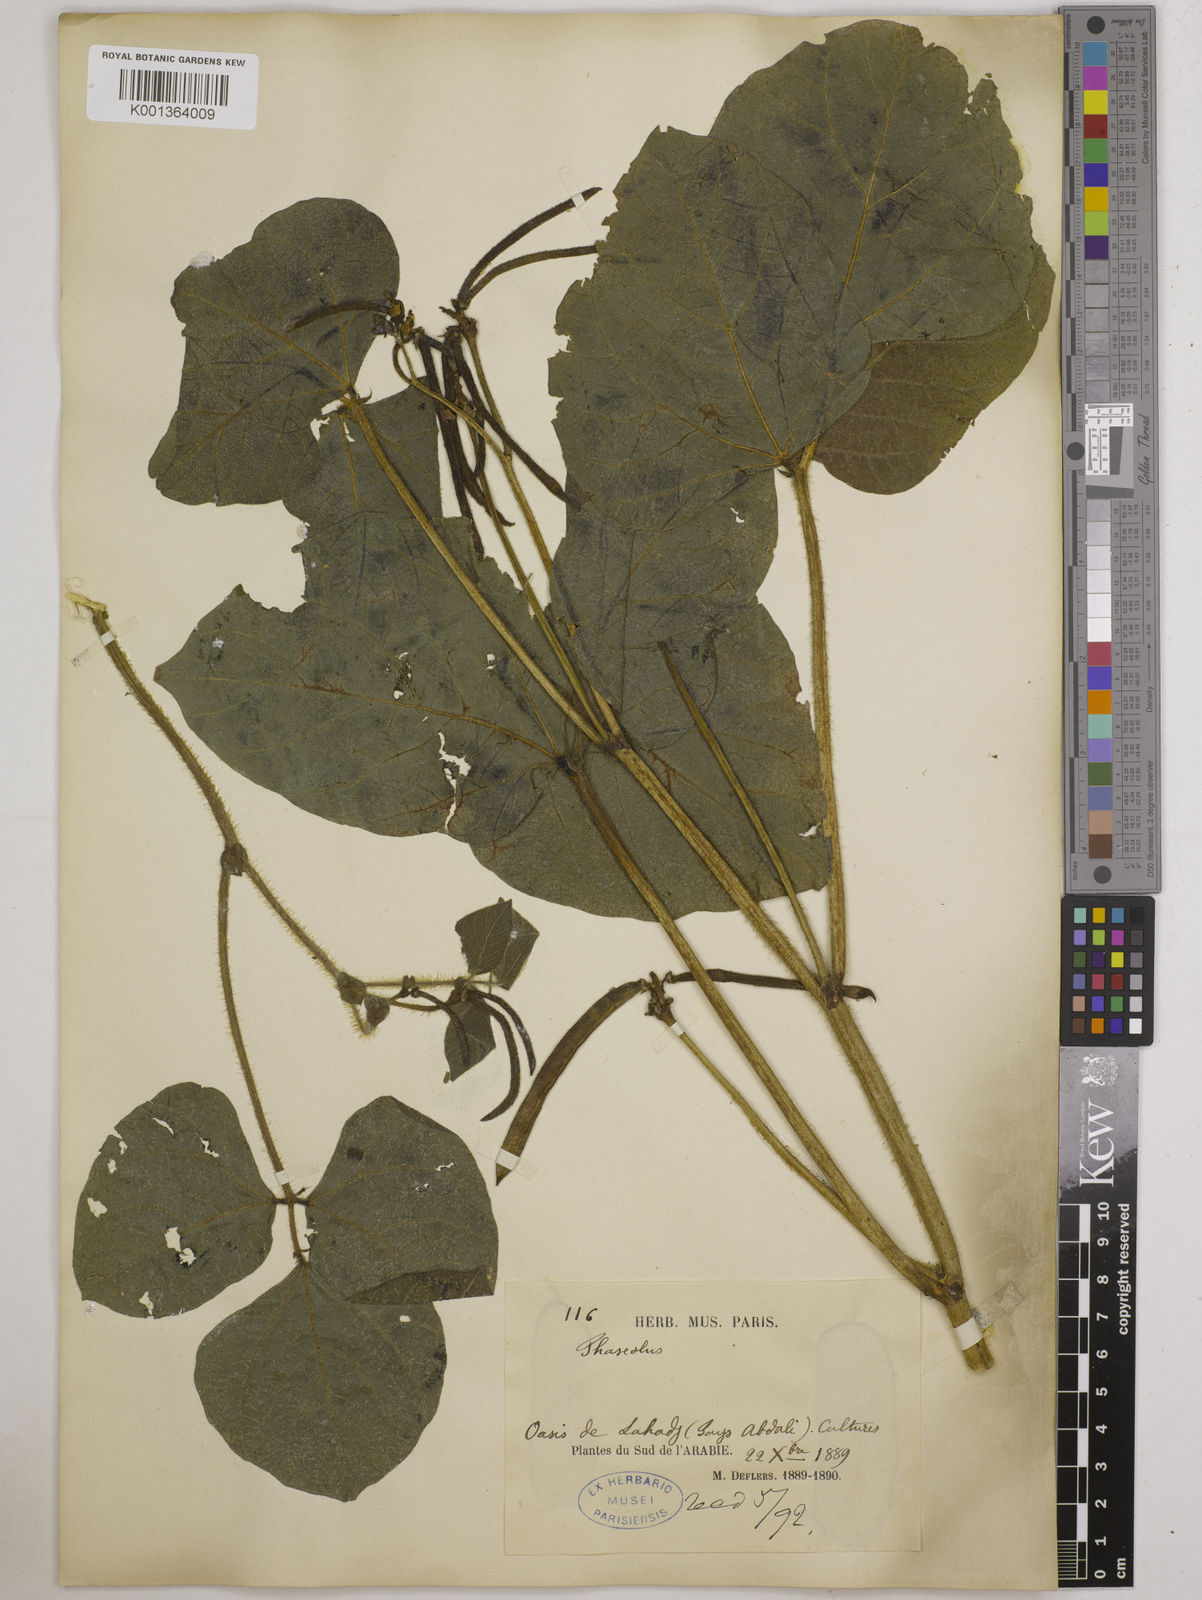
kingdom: Plantae
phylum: Tracheophyta
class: Magnoliopsida
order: Fabales
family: Fabaceae
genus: Vigna
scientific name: Vigna radiata
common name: Mung-bean
